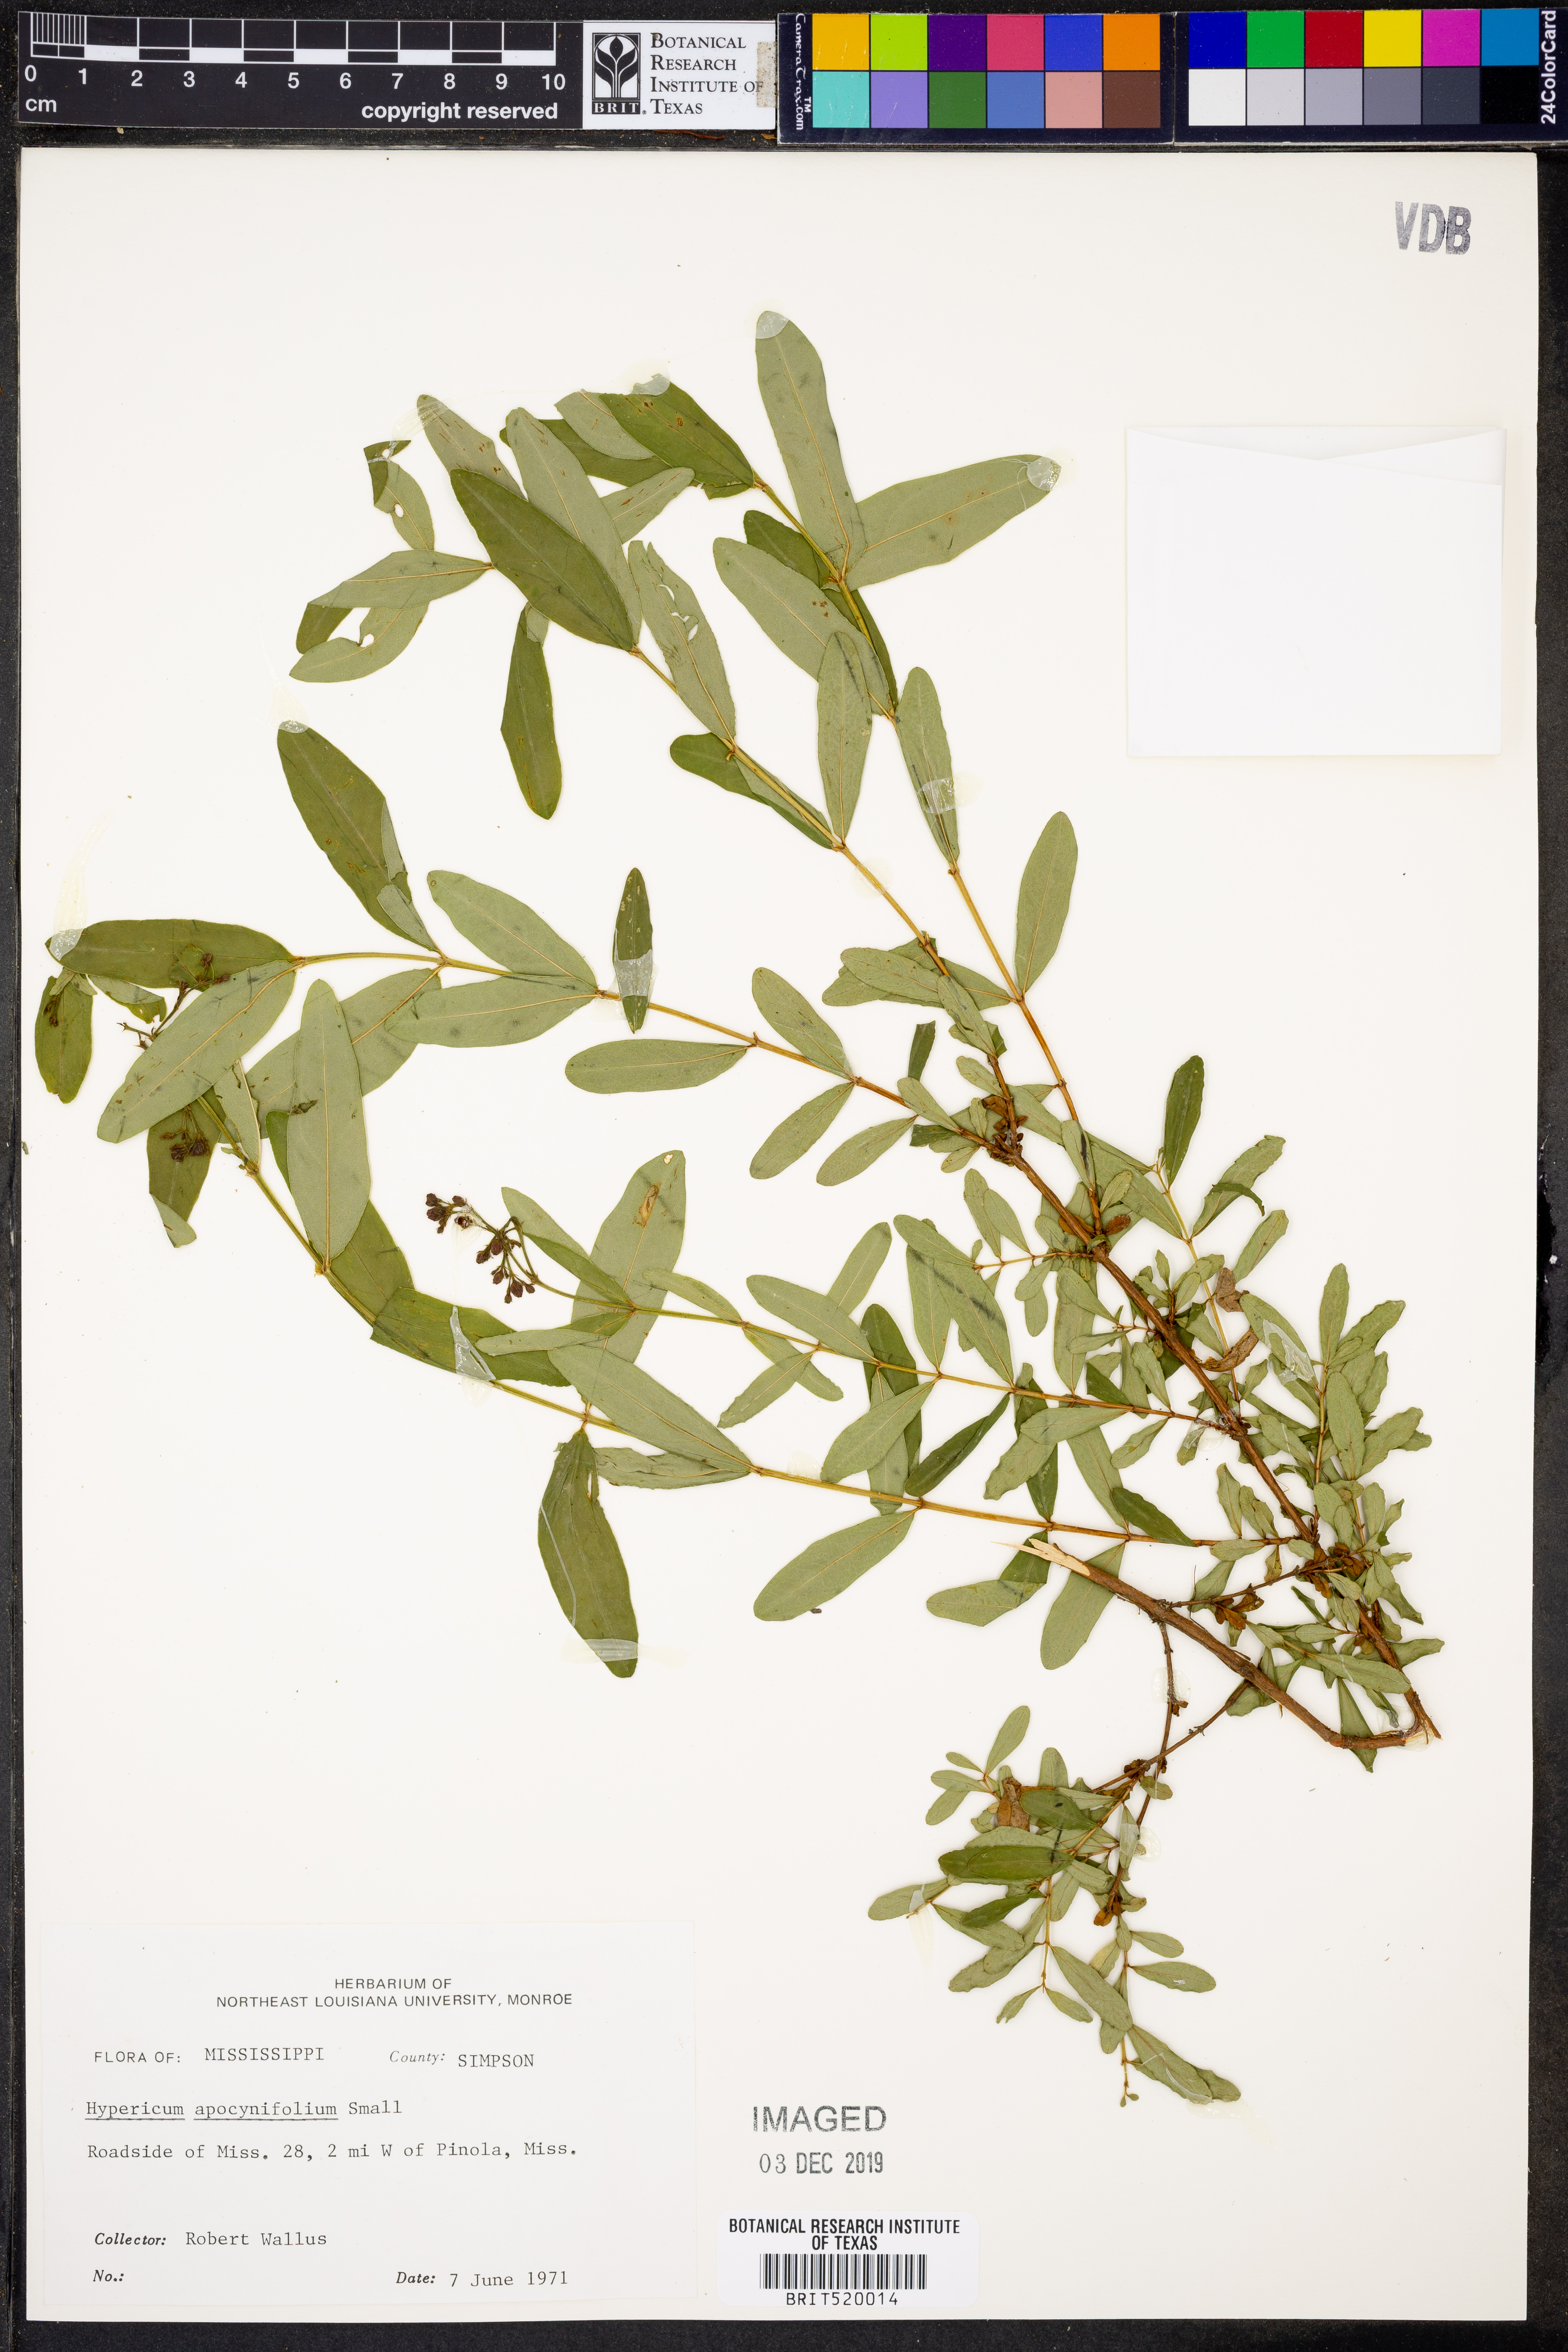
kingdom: Plantae
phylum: Tracheophyta
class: Magnoliopsida
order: Malpighiales
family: Hypericaceae
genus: Hypericum
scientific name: Hypericum apocynifolium
